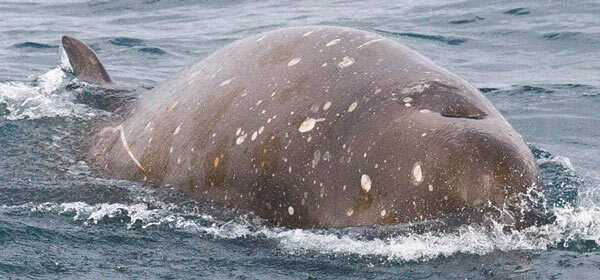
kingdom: Animalia
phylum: Chordata
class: Mammalia
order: Cetacea
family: Hyperoodontidae
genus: Hyperoodon
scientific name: Hyperoodon planifrons
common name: Southern Bottlenose Whale
